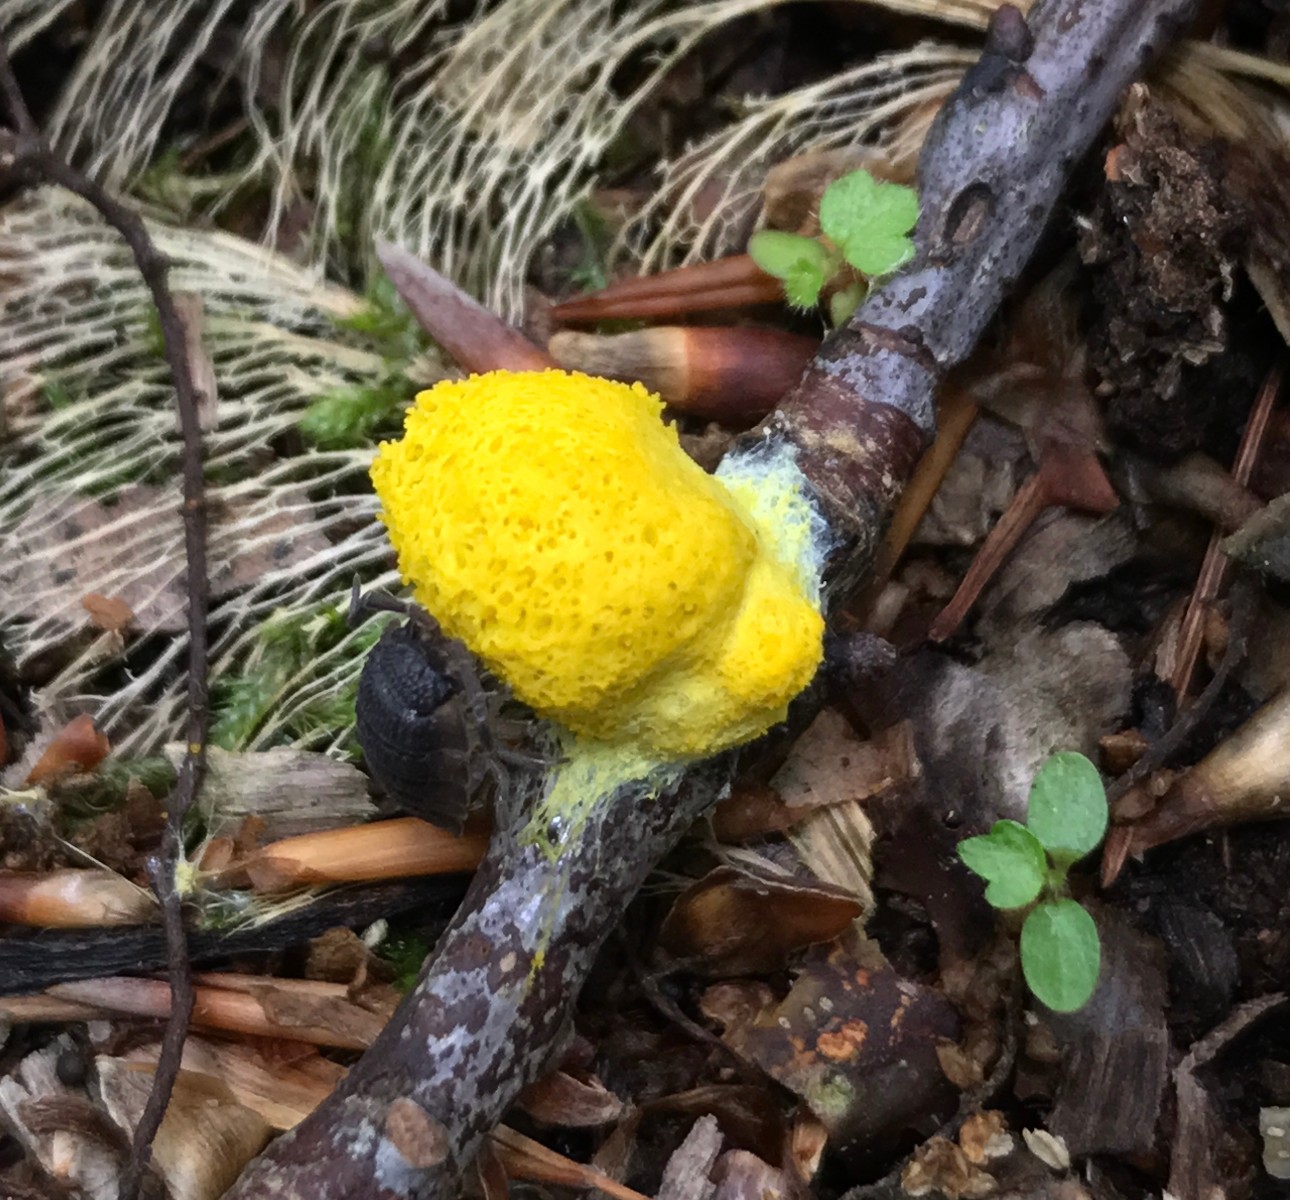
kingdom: Protozoa
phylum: Mycetozoa
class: Myxomycetes
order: Physarales
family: Physaraceae
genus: Fuligo
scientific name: Fuligo septica
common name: gul troldsmør
